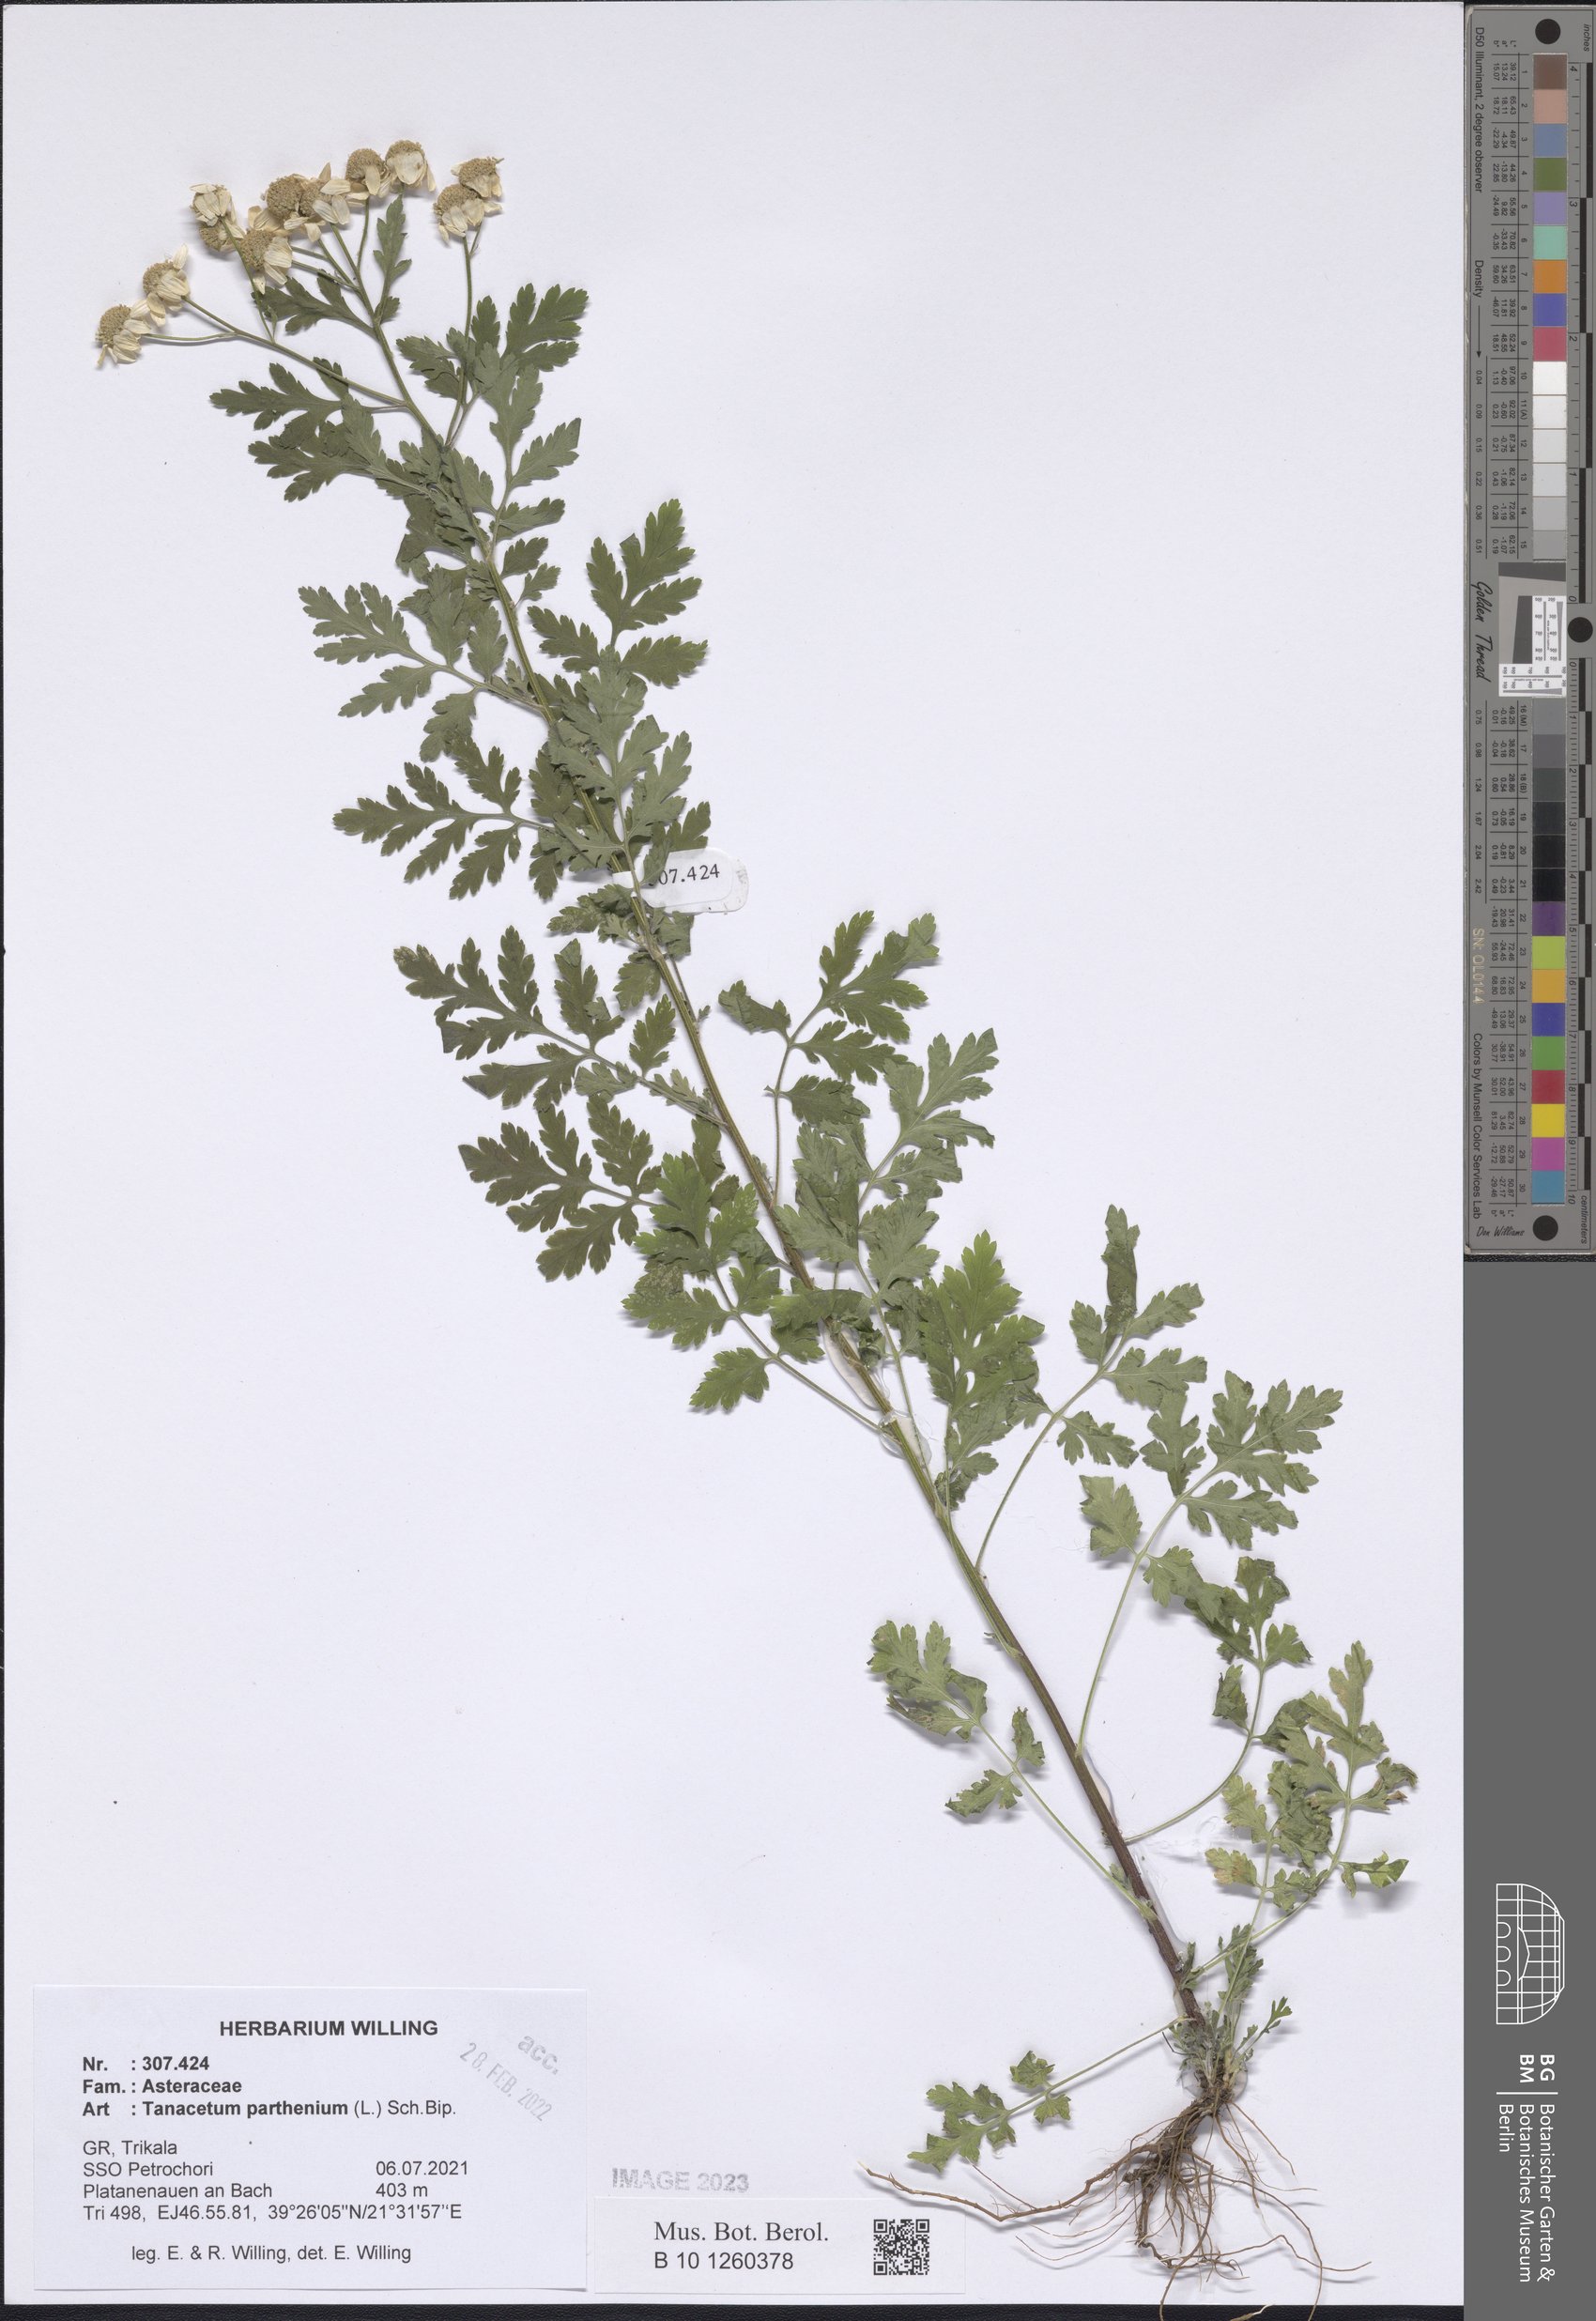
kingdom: Plantae
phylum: Tracheophyta
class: Magnoliopsida
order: Asterales
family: Asteraceae
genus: Tanacetum
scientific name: Tanacetum parthenium
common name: Feverfew
